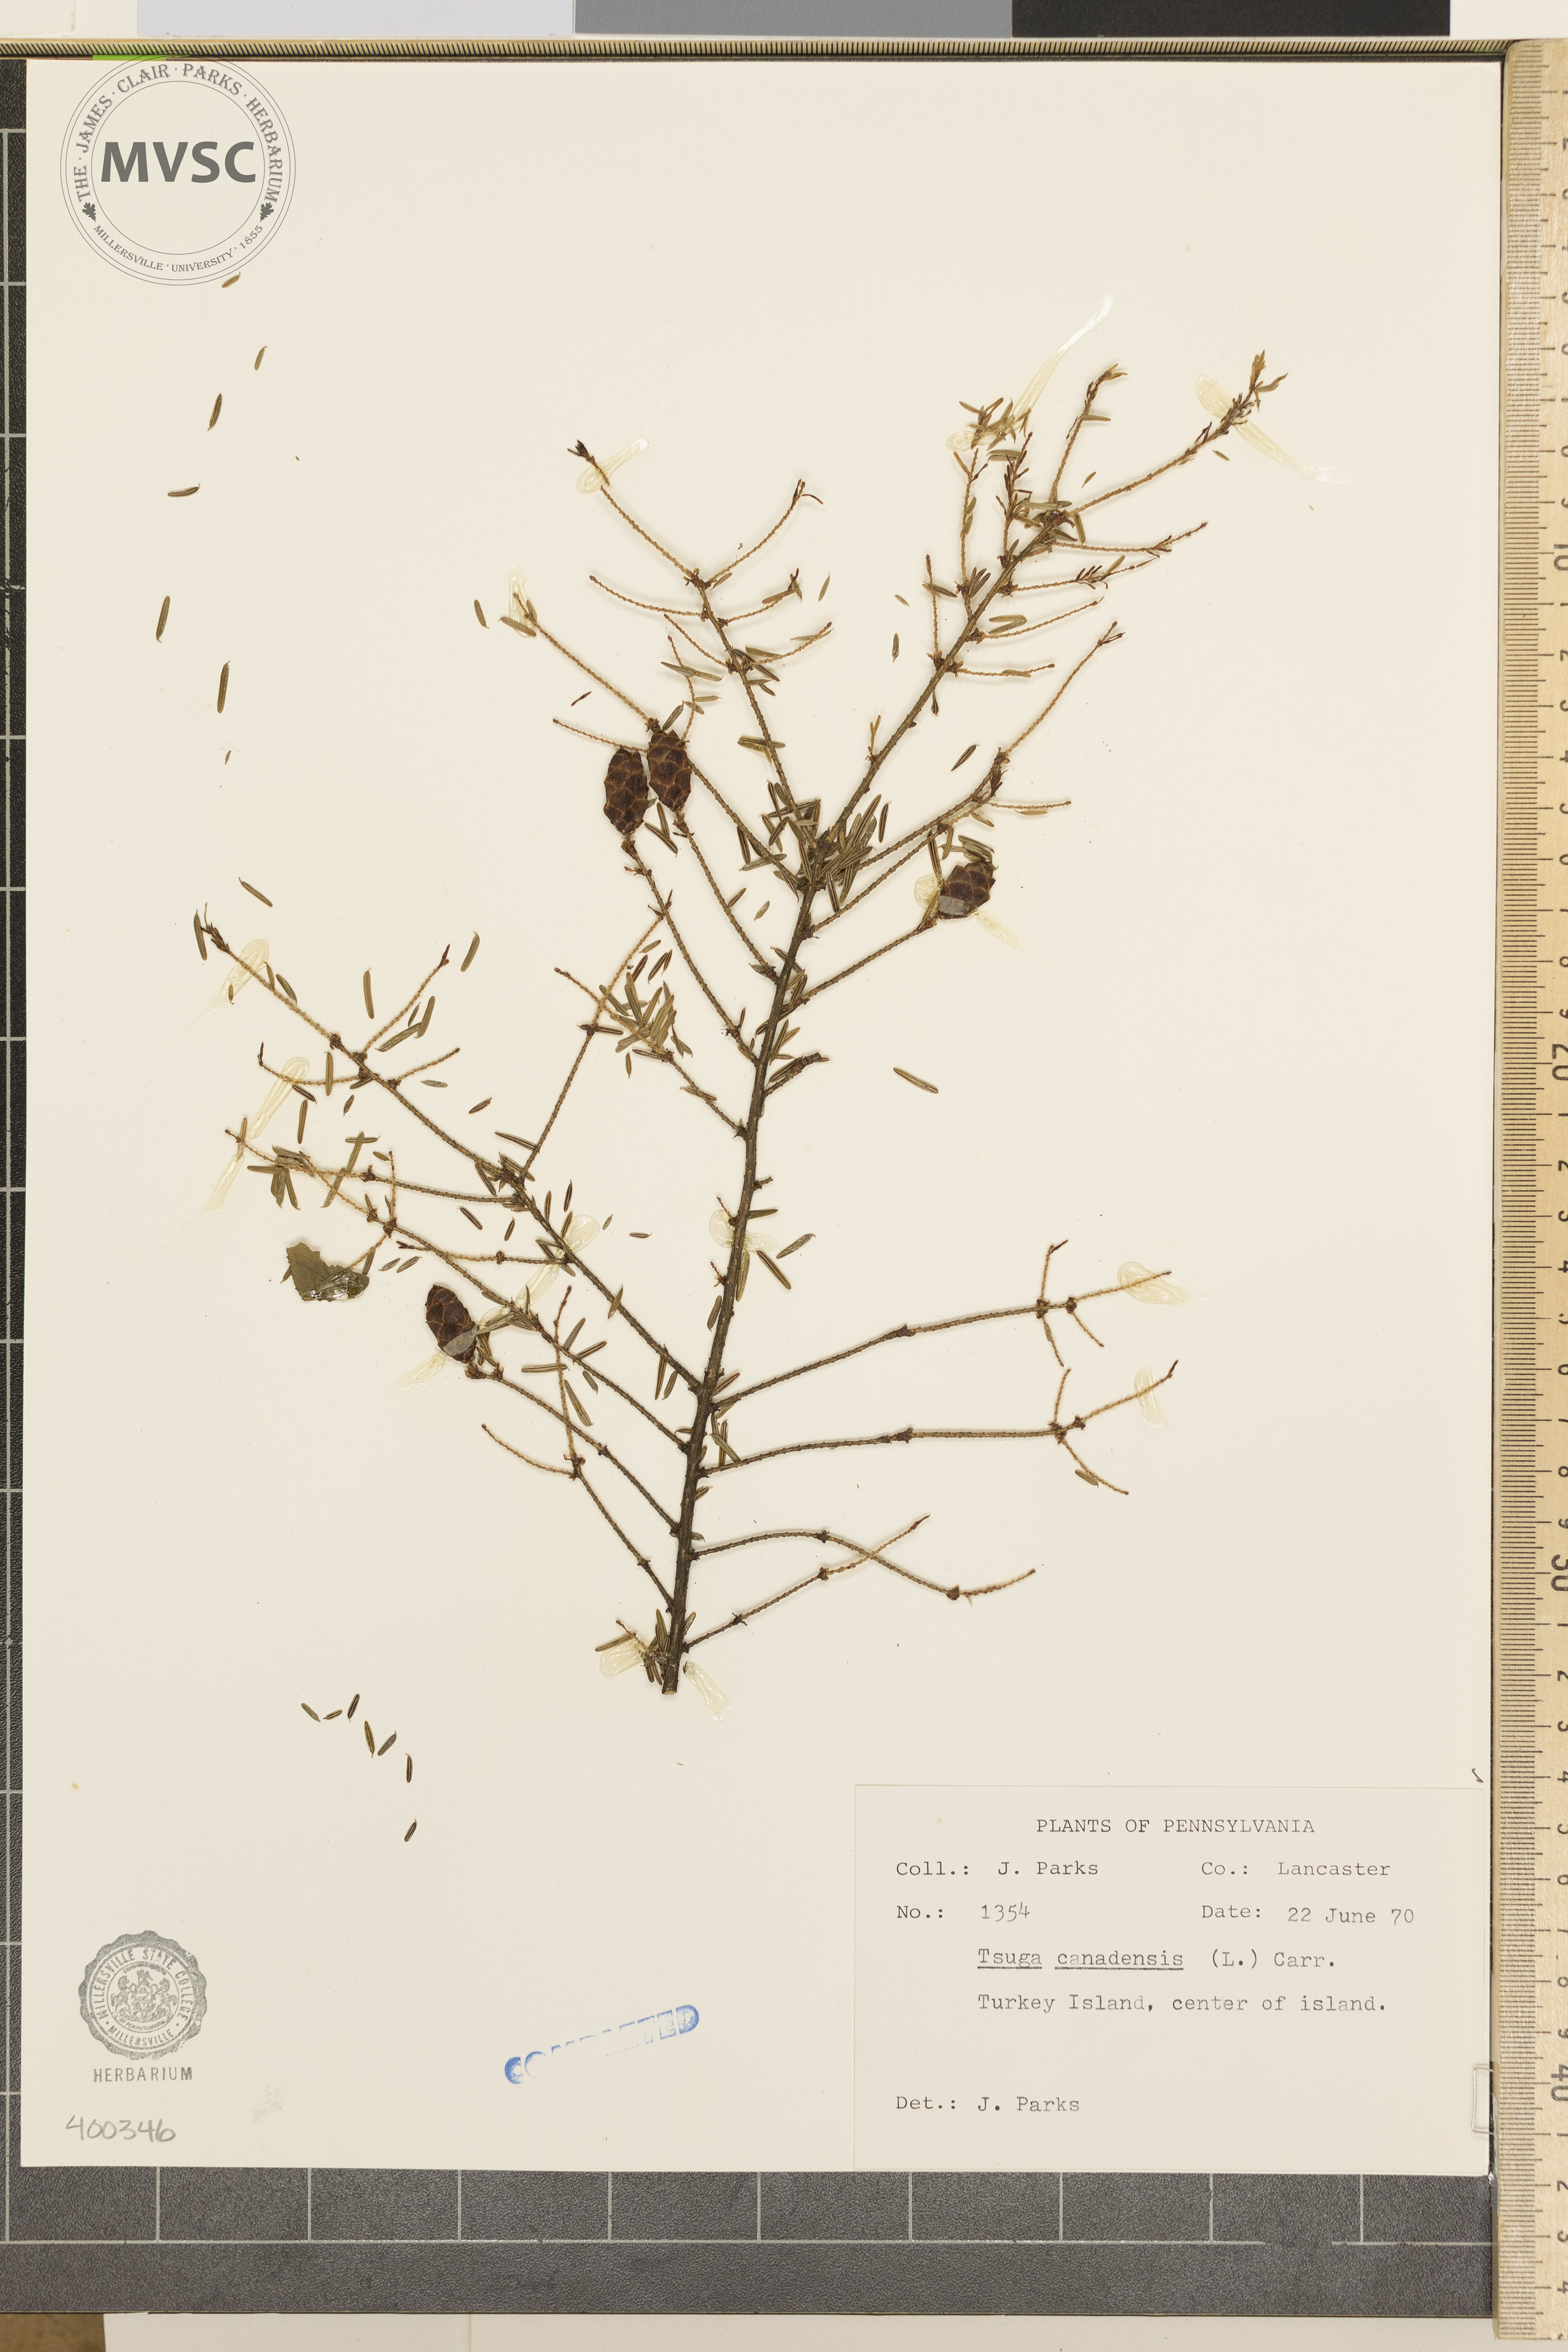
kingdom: Plantae
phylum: Tracheophyta
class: Pinopsida
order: Pinales
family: Pinaceae
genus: Tsuga
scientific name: Tsuga canadensis
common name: Eastern hemlock
